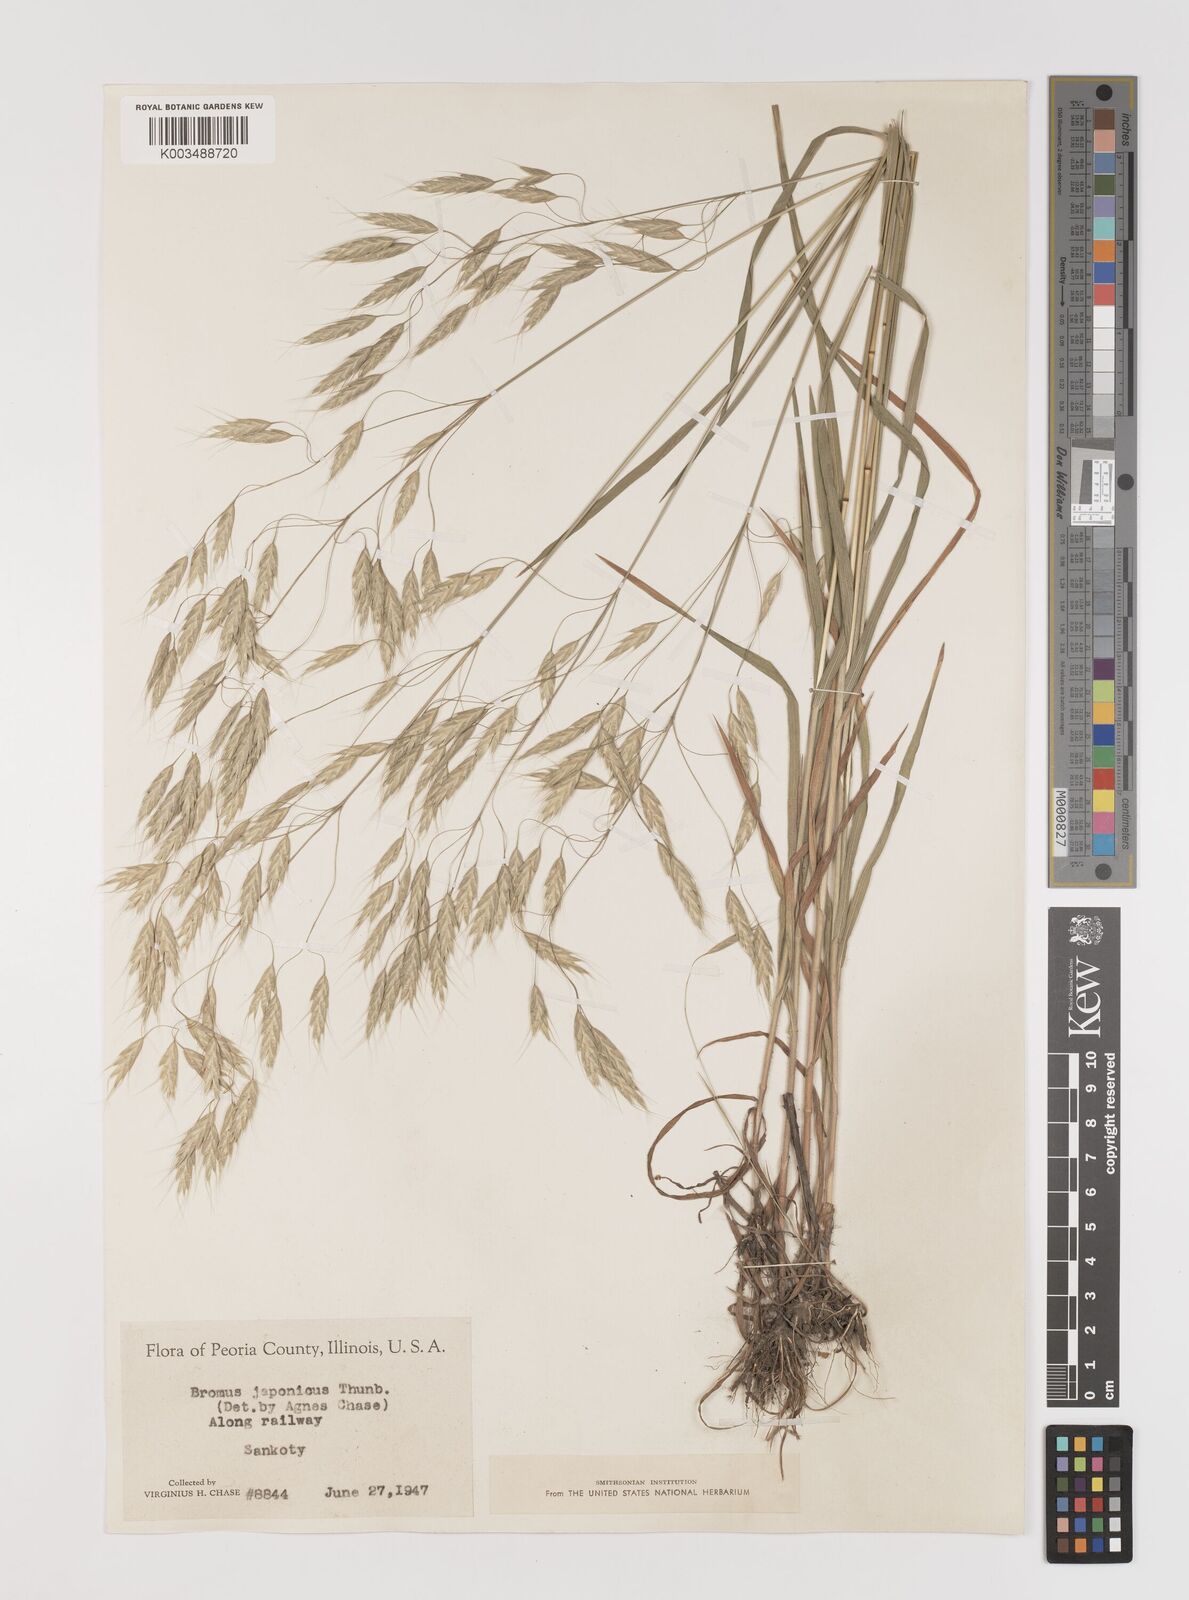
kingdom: Plantae
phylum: Tracheophyta
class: Liliopsida
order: Poales
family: Poaceae
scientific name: Poaceae
